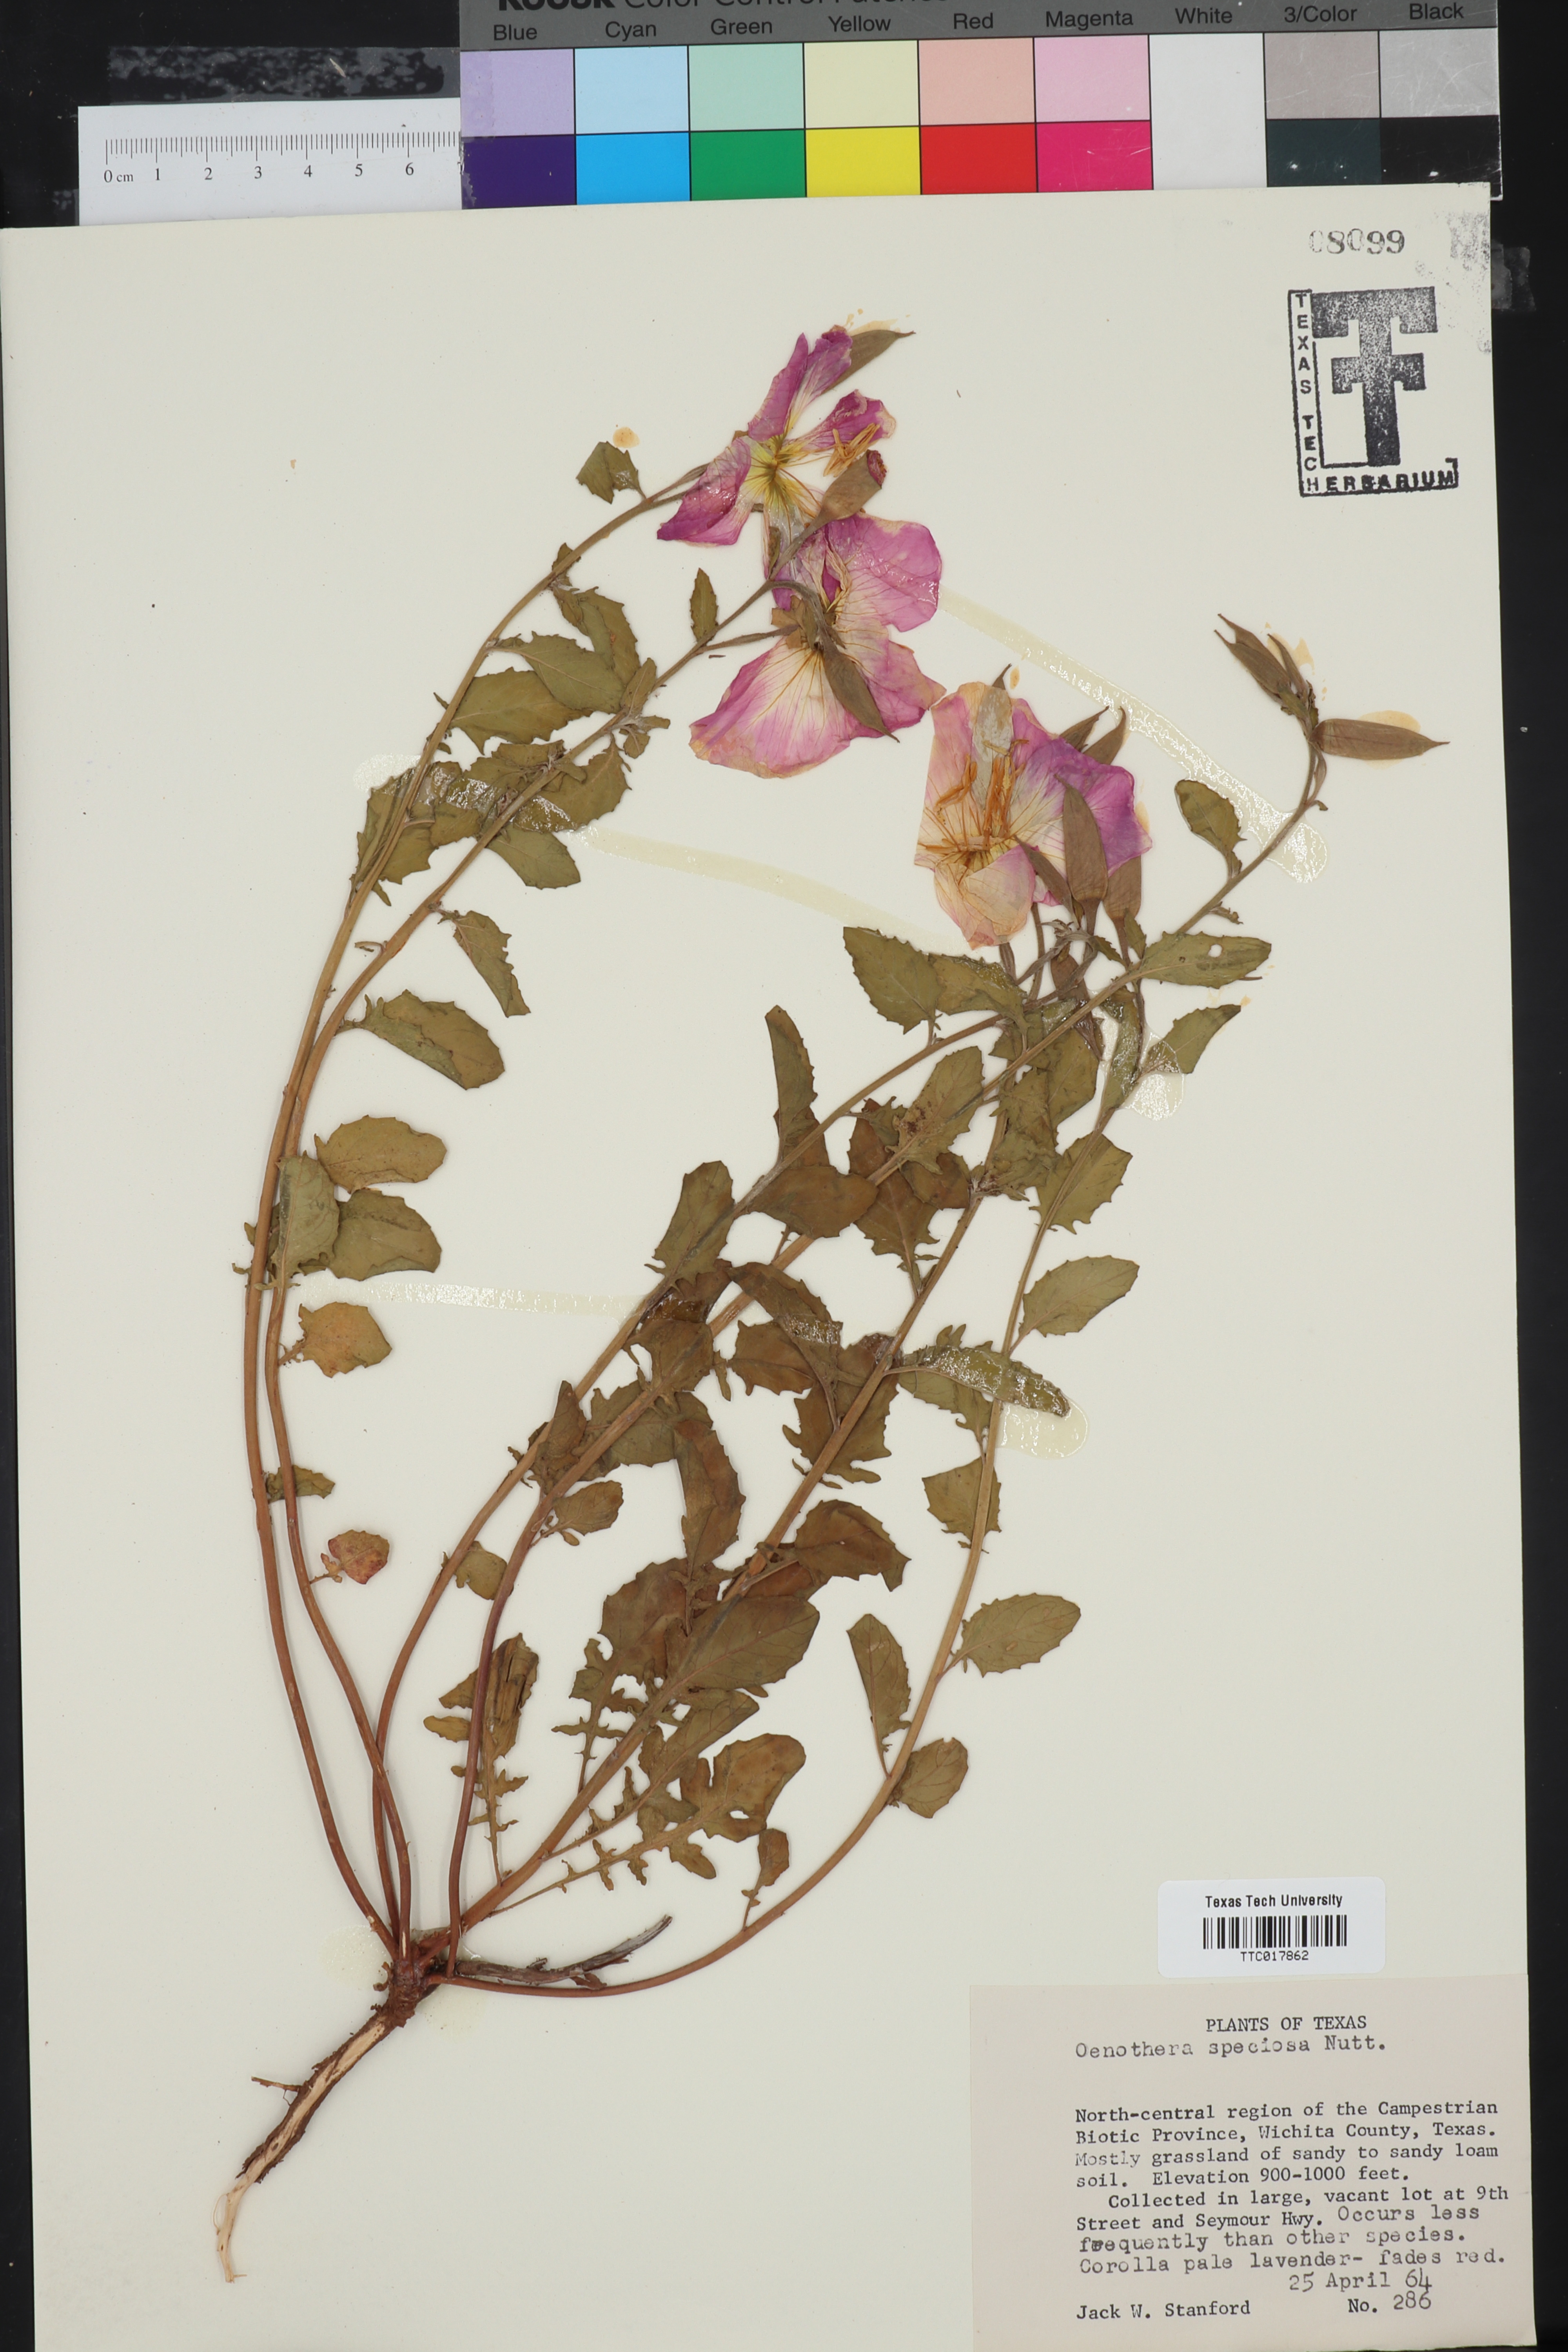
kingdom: Plantae
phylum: Tracheophyta
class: Magnoliopsida
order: Myrtales
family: Onagraceae
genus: Oenothera
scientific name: Oenothera speciosa
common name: White evening-primrose
